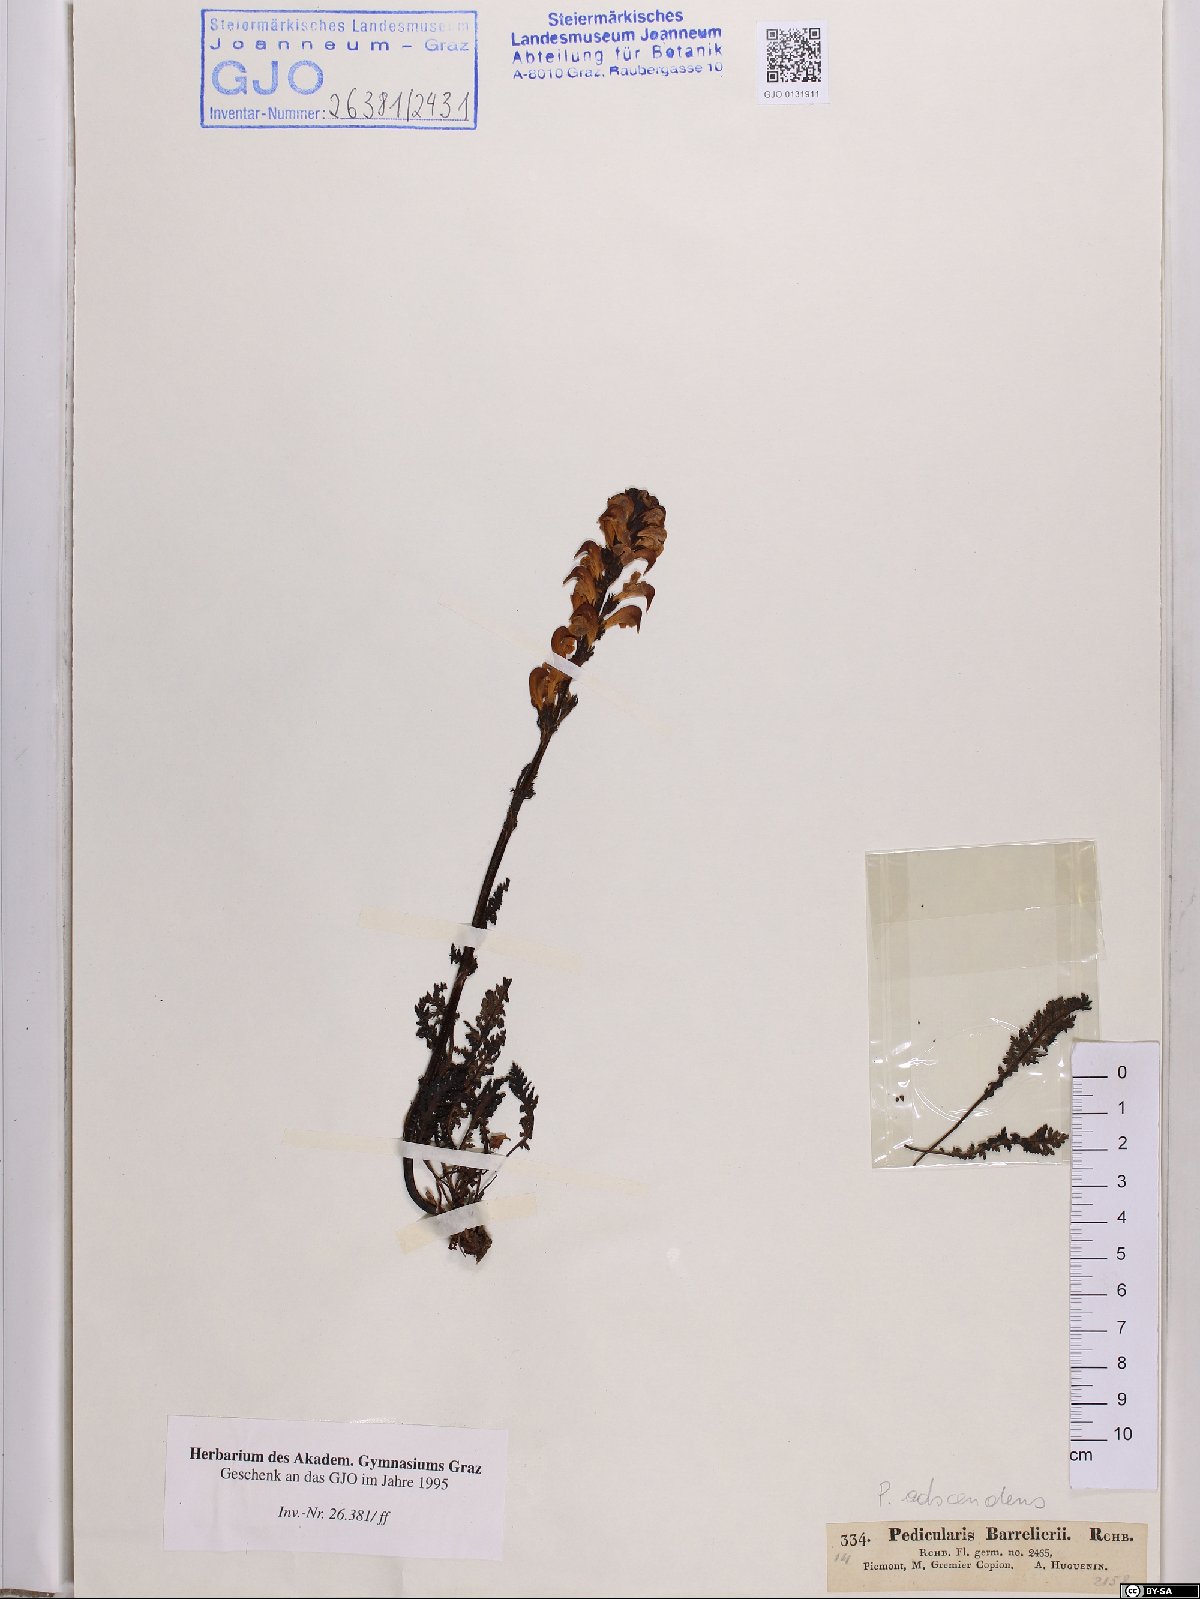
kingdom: Plantae
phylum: Tracheophyta
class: Magnoliopsida
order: Lamiales
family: Orobanchaceae
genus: Pedicularis
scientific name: Pedicularis ascendens
